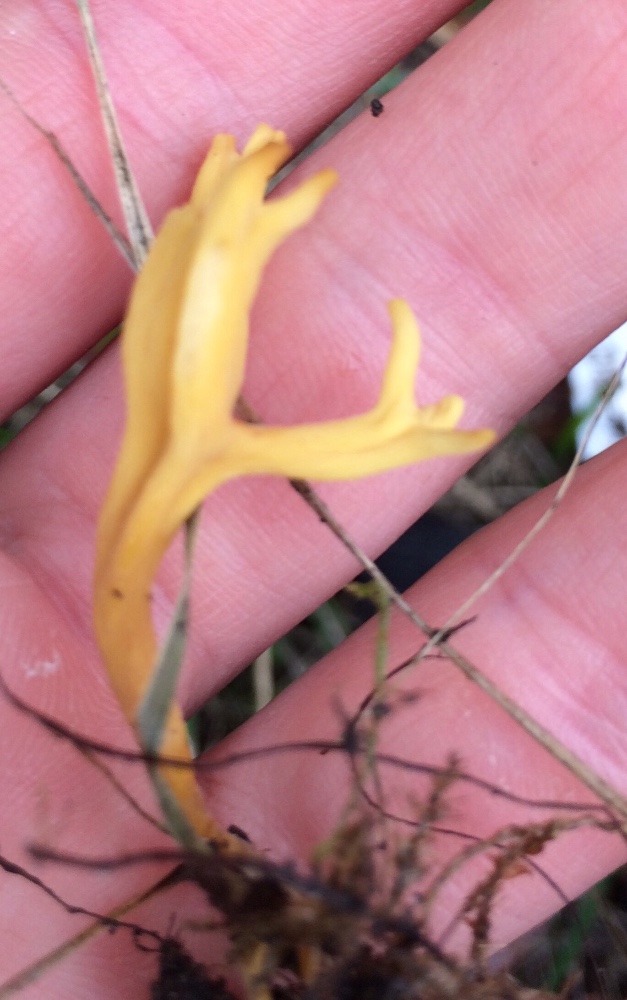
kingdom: Fungi
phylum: Basidiomycota
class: Agaricomycetes
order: Agaricales
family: Clavariaceae
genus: Clavulinopsis
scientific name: Clavulinopsis corniculata
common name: eng-køllesvamp
